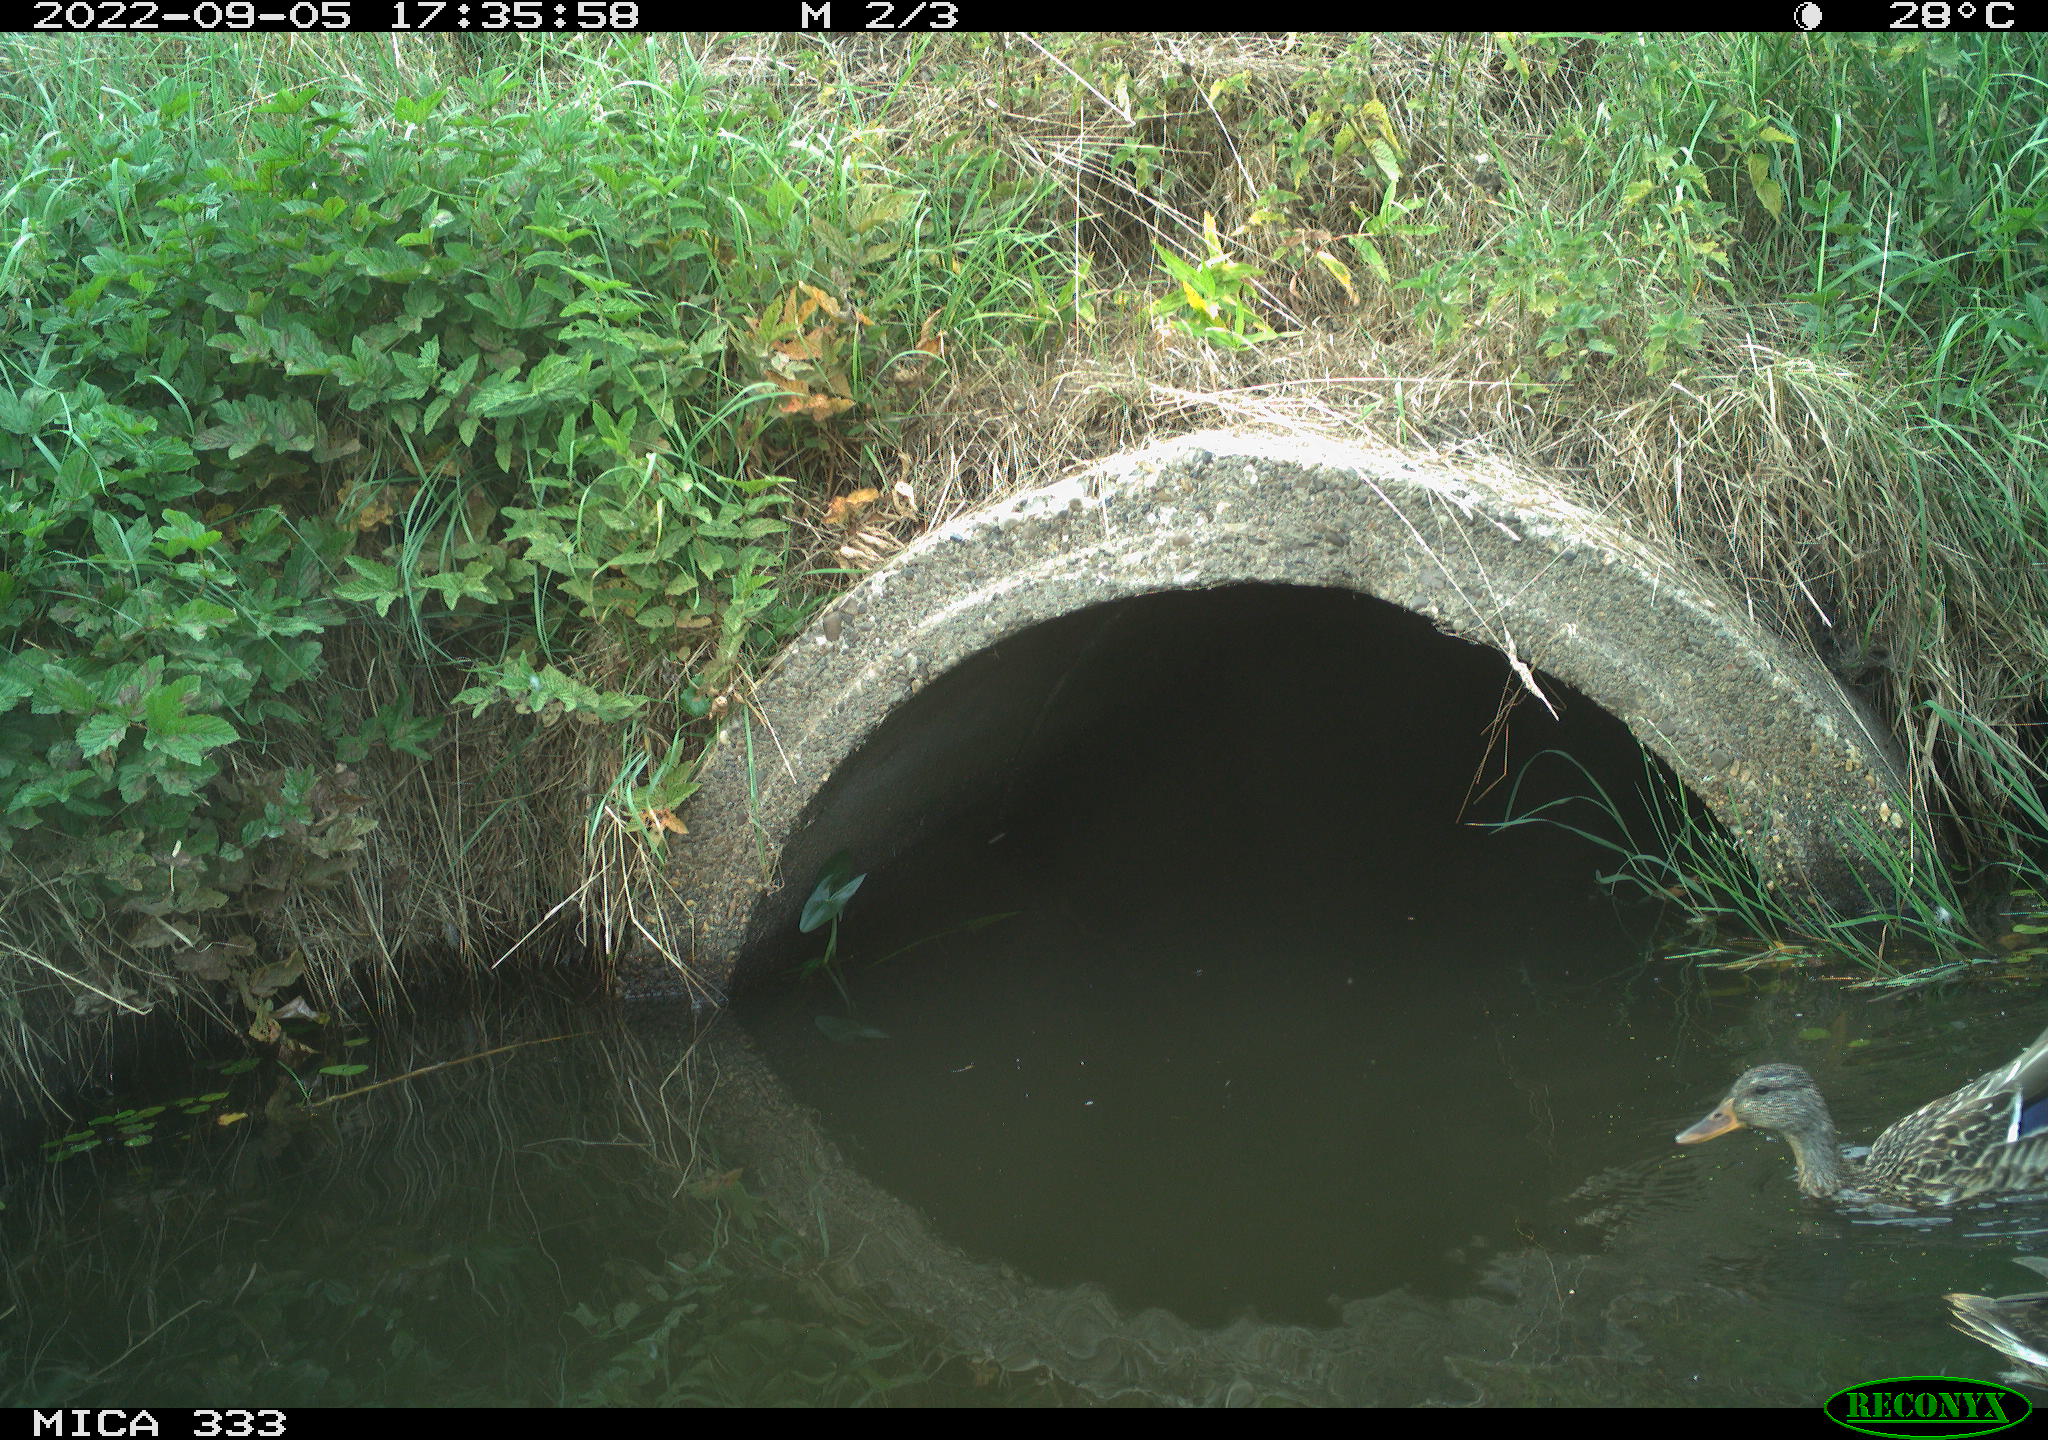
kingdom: Animalia
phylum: Chordata
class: Aves
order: Anseriformes
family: Anatidae
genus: Anas
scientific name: Anas platyrhynchos
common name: Mallard
